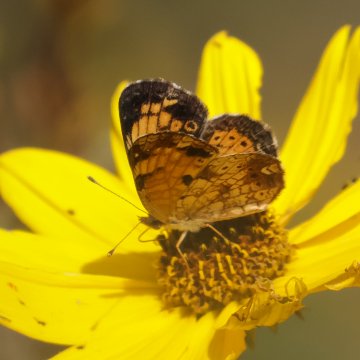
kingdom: Animalia
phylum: Arthropoda
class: Insecta
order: Lepidoptera
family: Nymphalidae
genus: Phyciodes
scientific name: Phyciodes tharos
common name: Pearl Crescent
